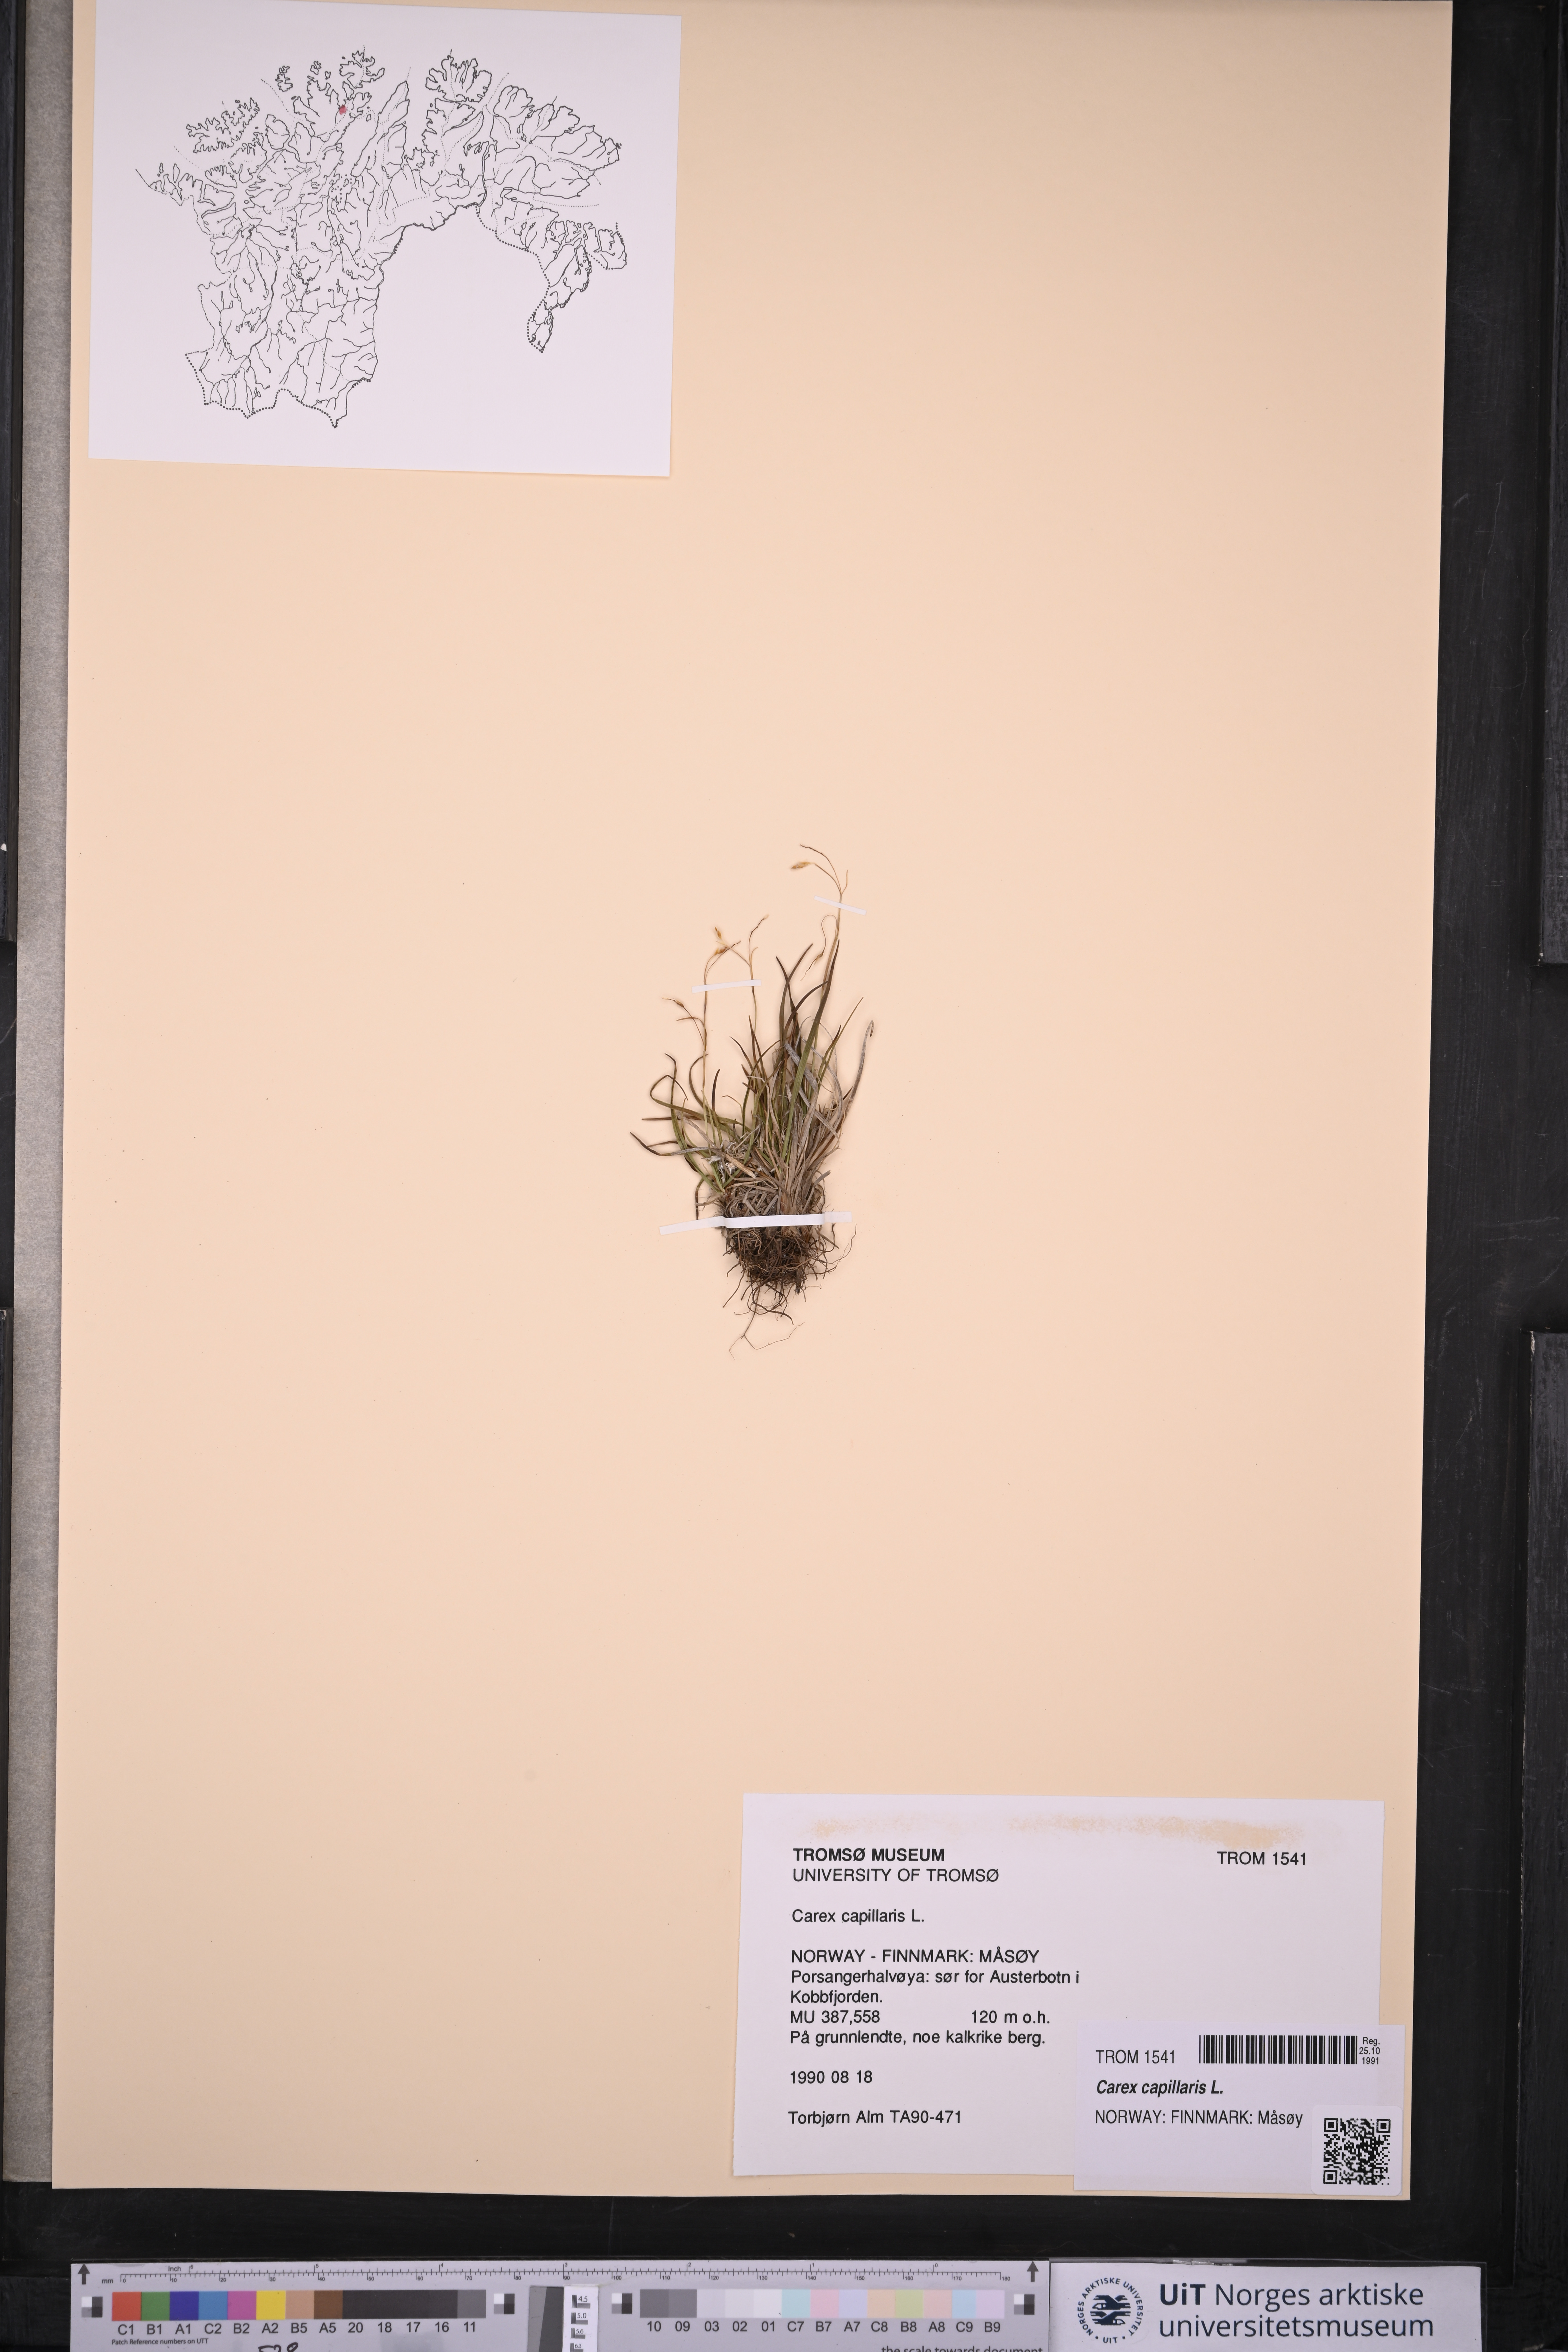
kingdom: Plantae
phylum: Tracheophyta
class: Liliopsida
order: Poales
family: Cyperaceae
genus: Carex
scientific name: Carex capillaris
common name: Hair sedge
